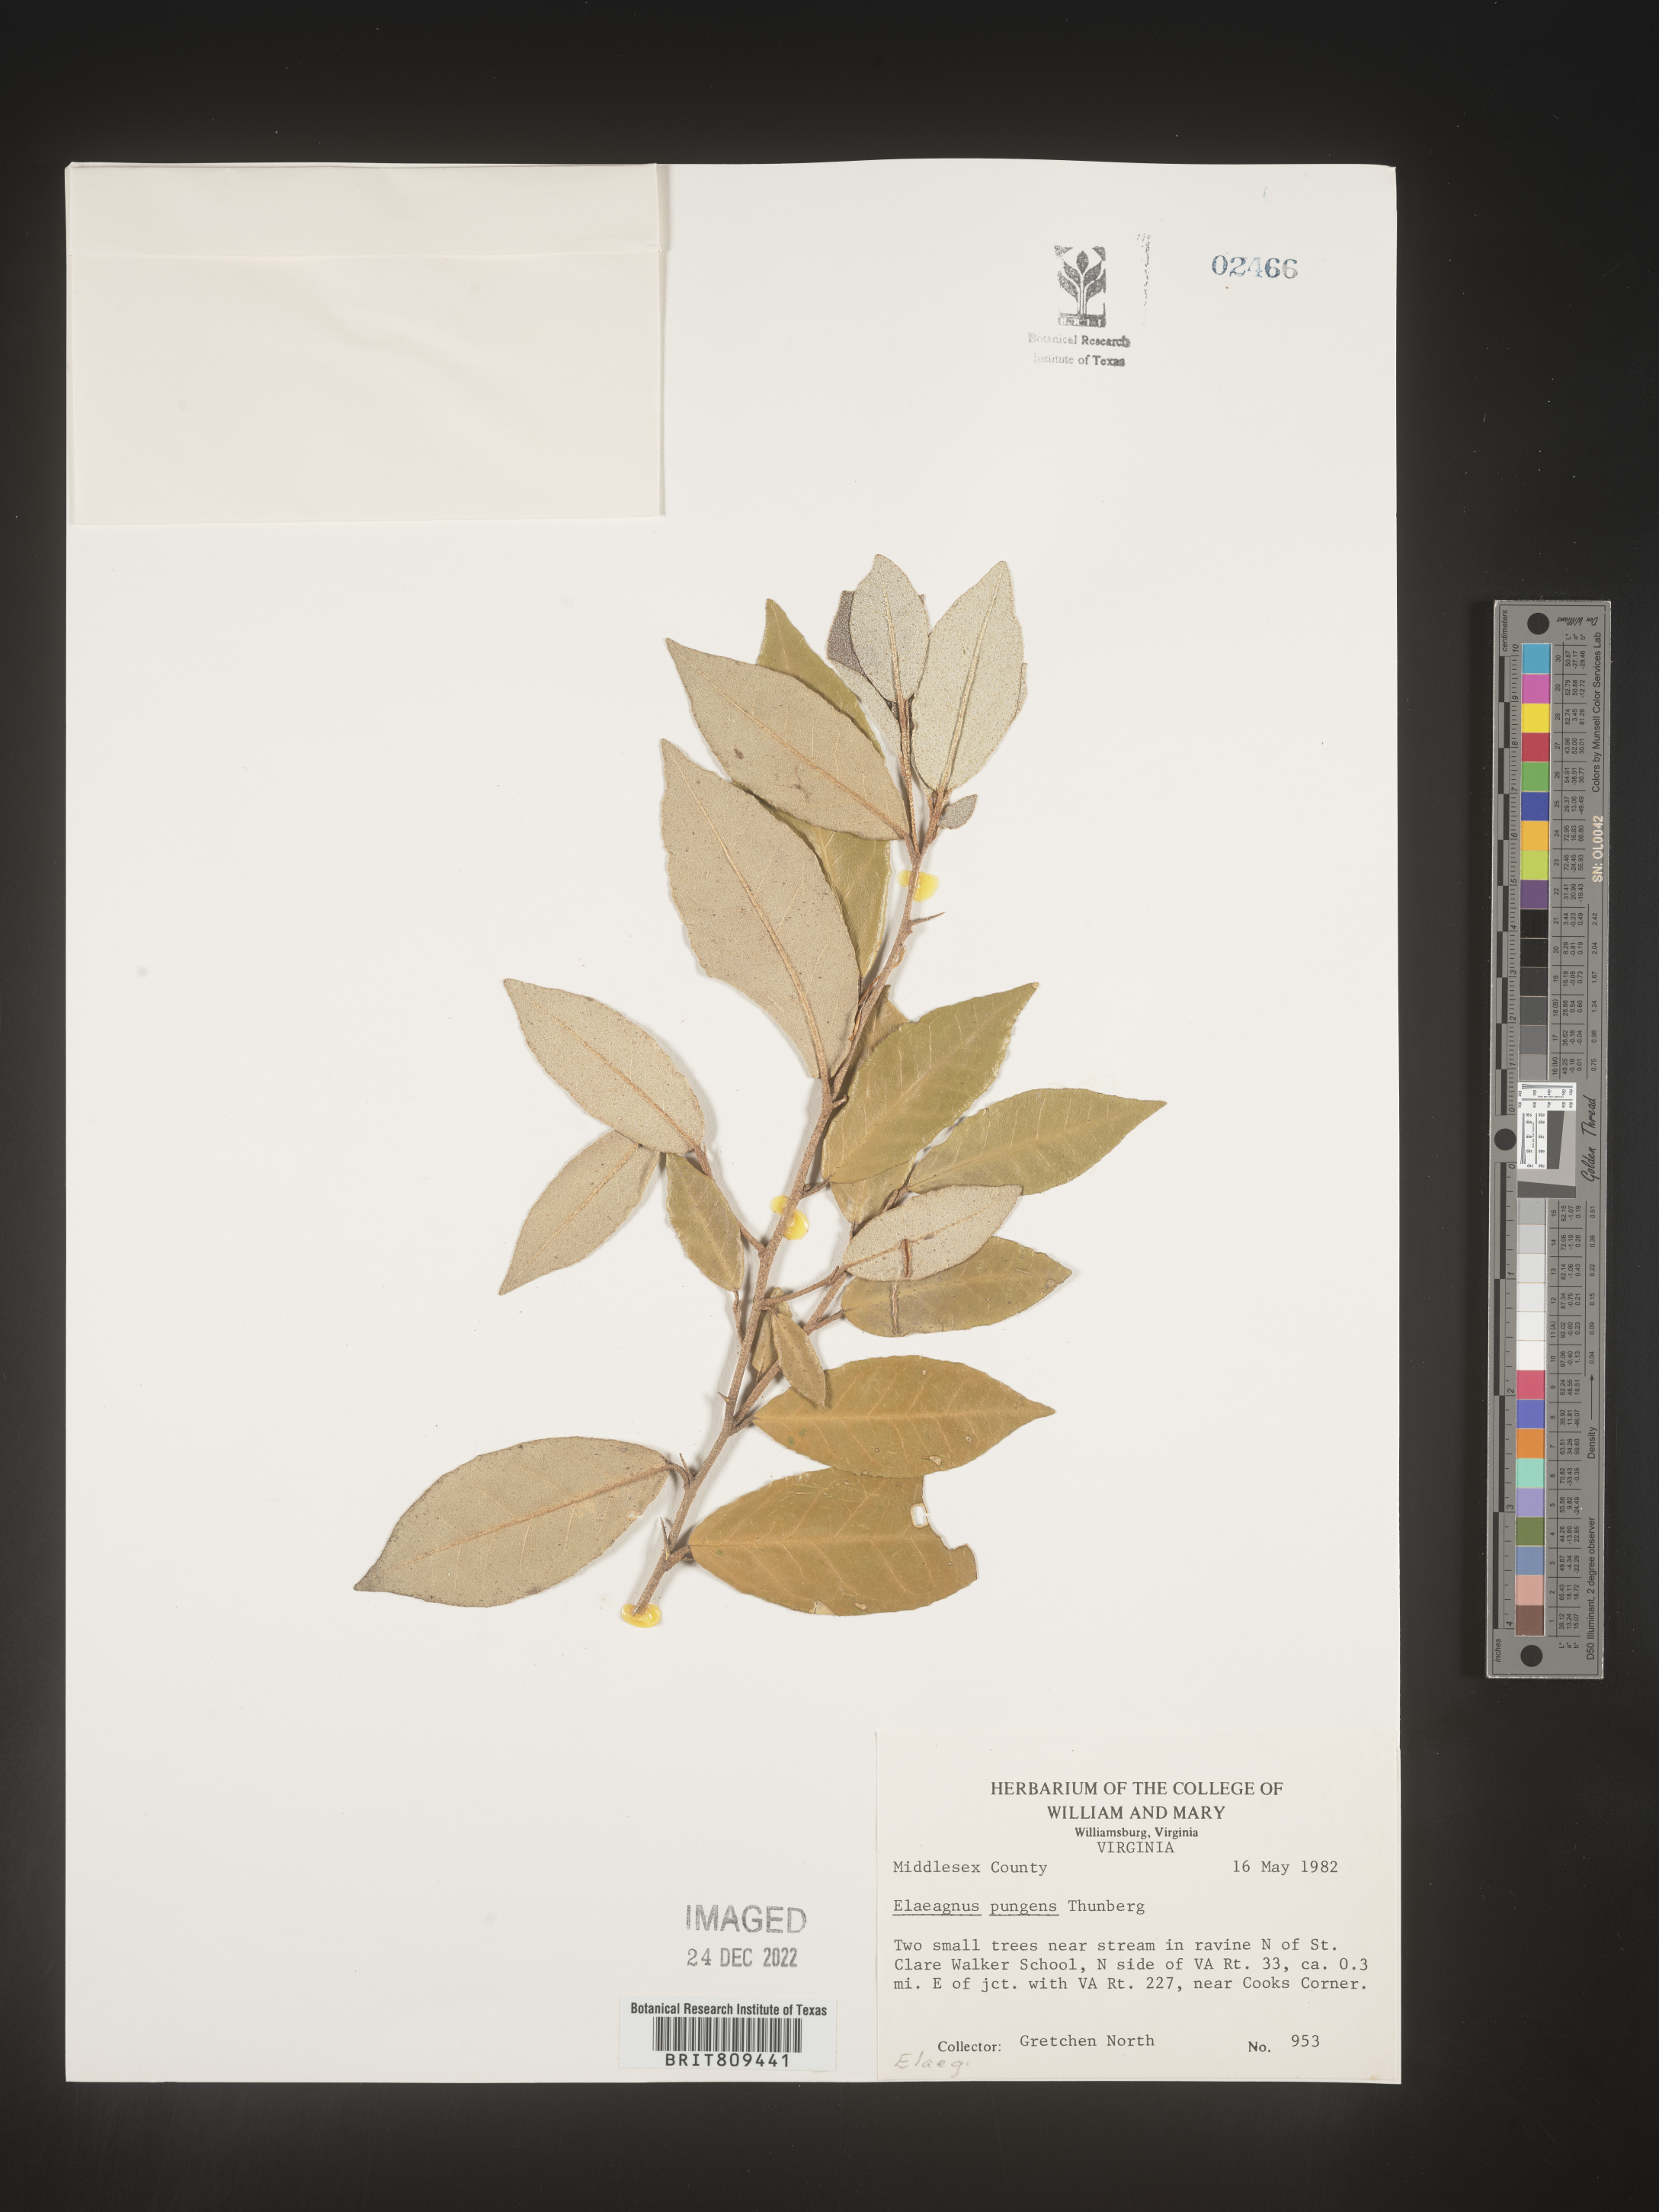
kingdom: Plantae
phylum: Tracheophyta
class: Magnoliopsida
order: Rosales
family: Elaeagnaceae
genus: Elaeagnus
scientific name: Elaeagnus
